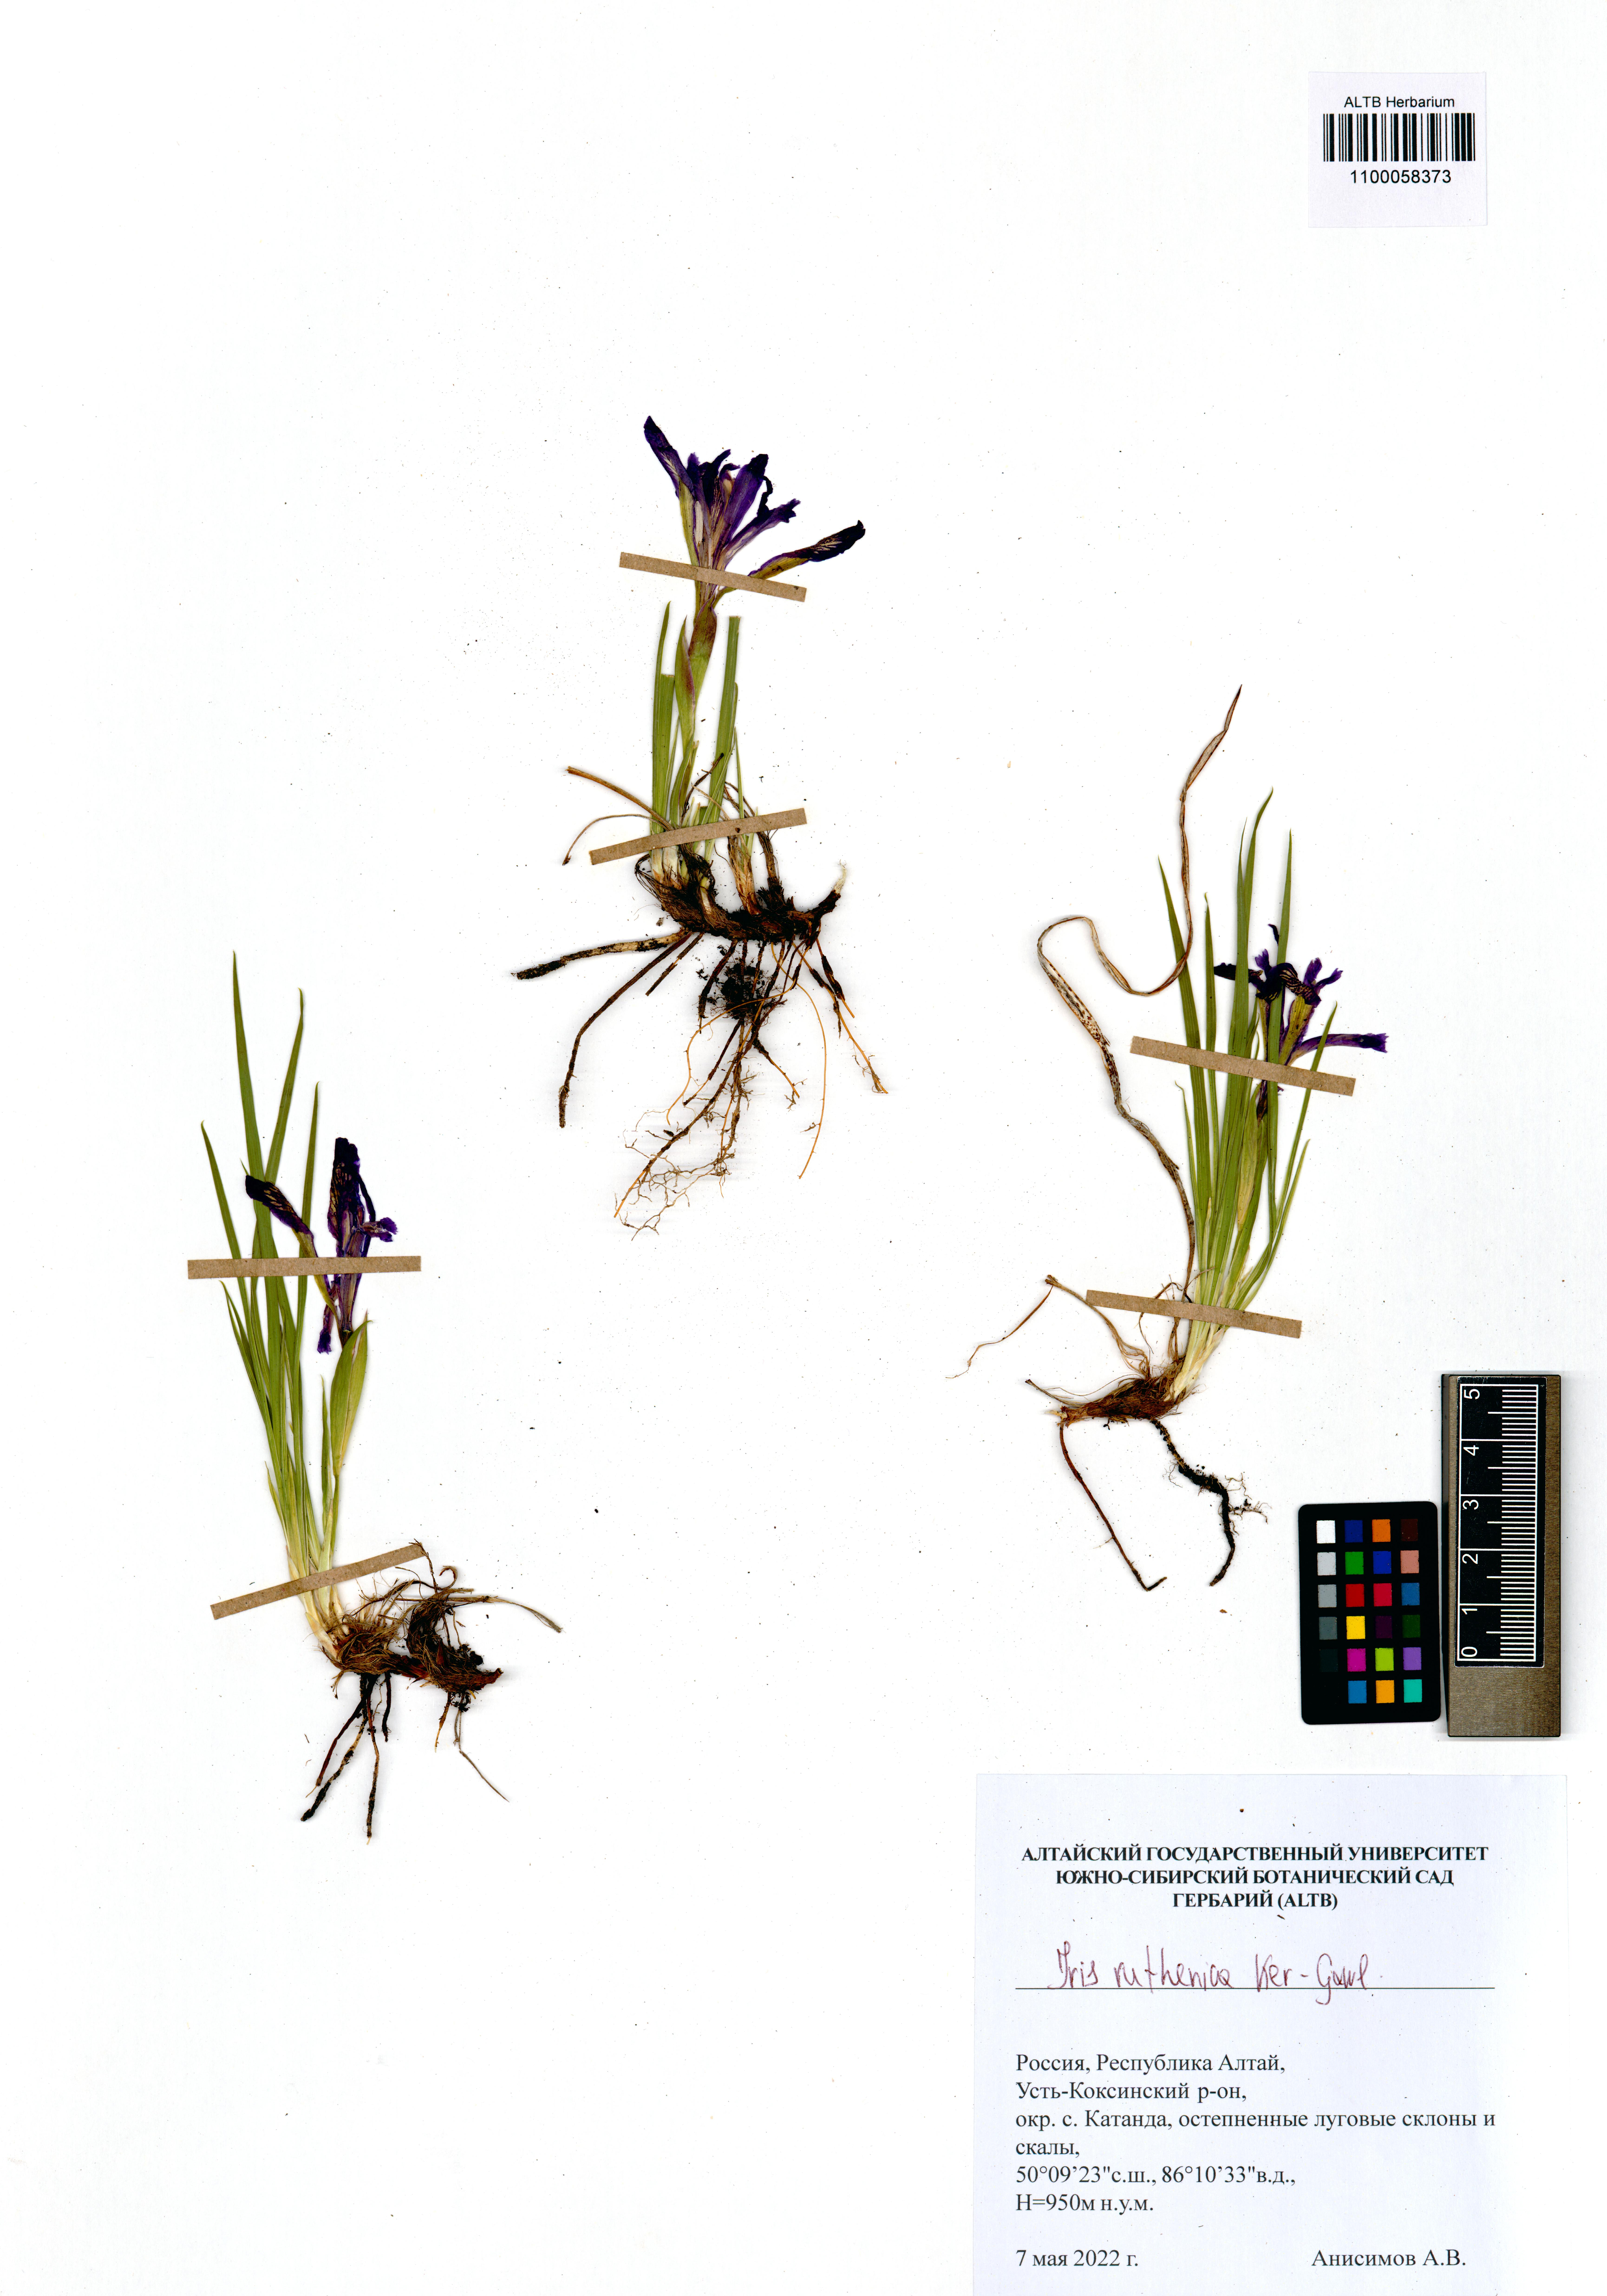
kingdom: Plantae
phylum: Tracheophyta
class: Liliopsida
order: Asparagales
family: Iridaceae
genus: Iris
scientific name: Iris ruthenica
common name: Purple-bract iris
